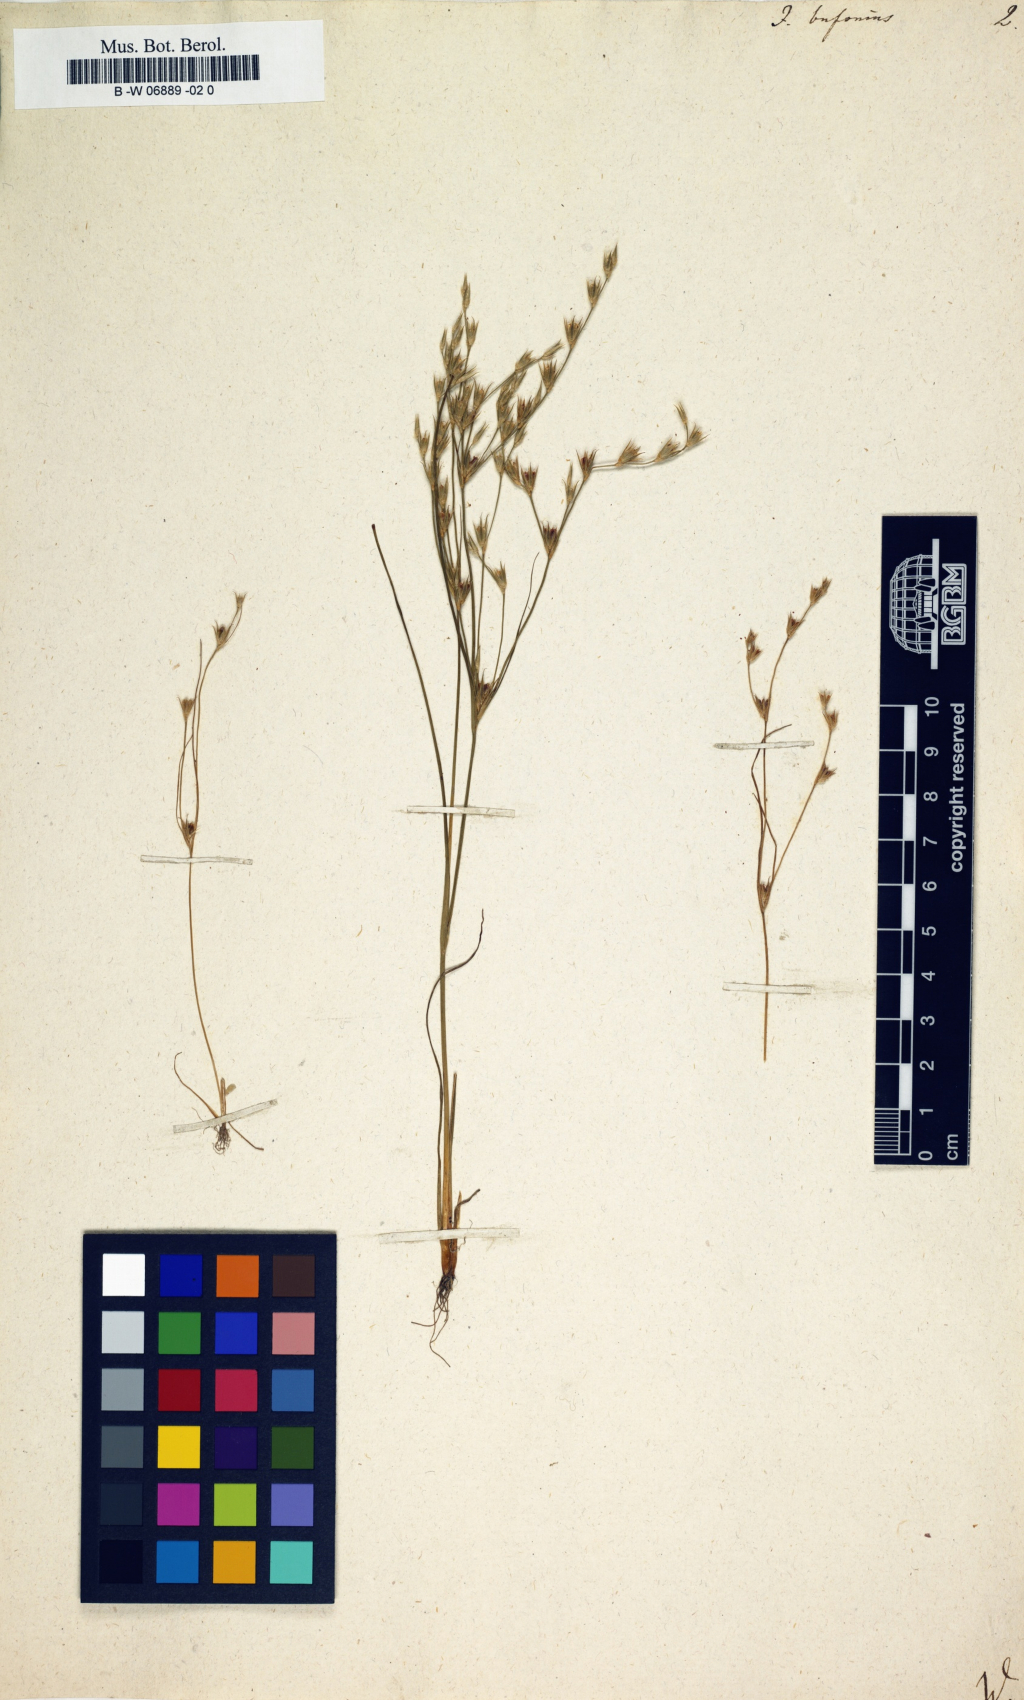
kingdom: Plantae
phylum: Tracheophyta
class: Liliopsida
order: Poales
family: Juncaceae
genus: Juncus
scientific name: Juncus bufonius
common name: Toad rush
